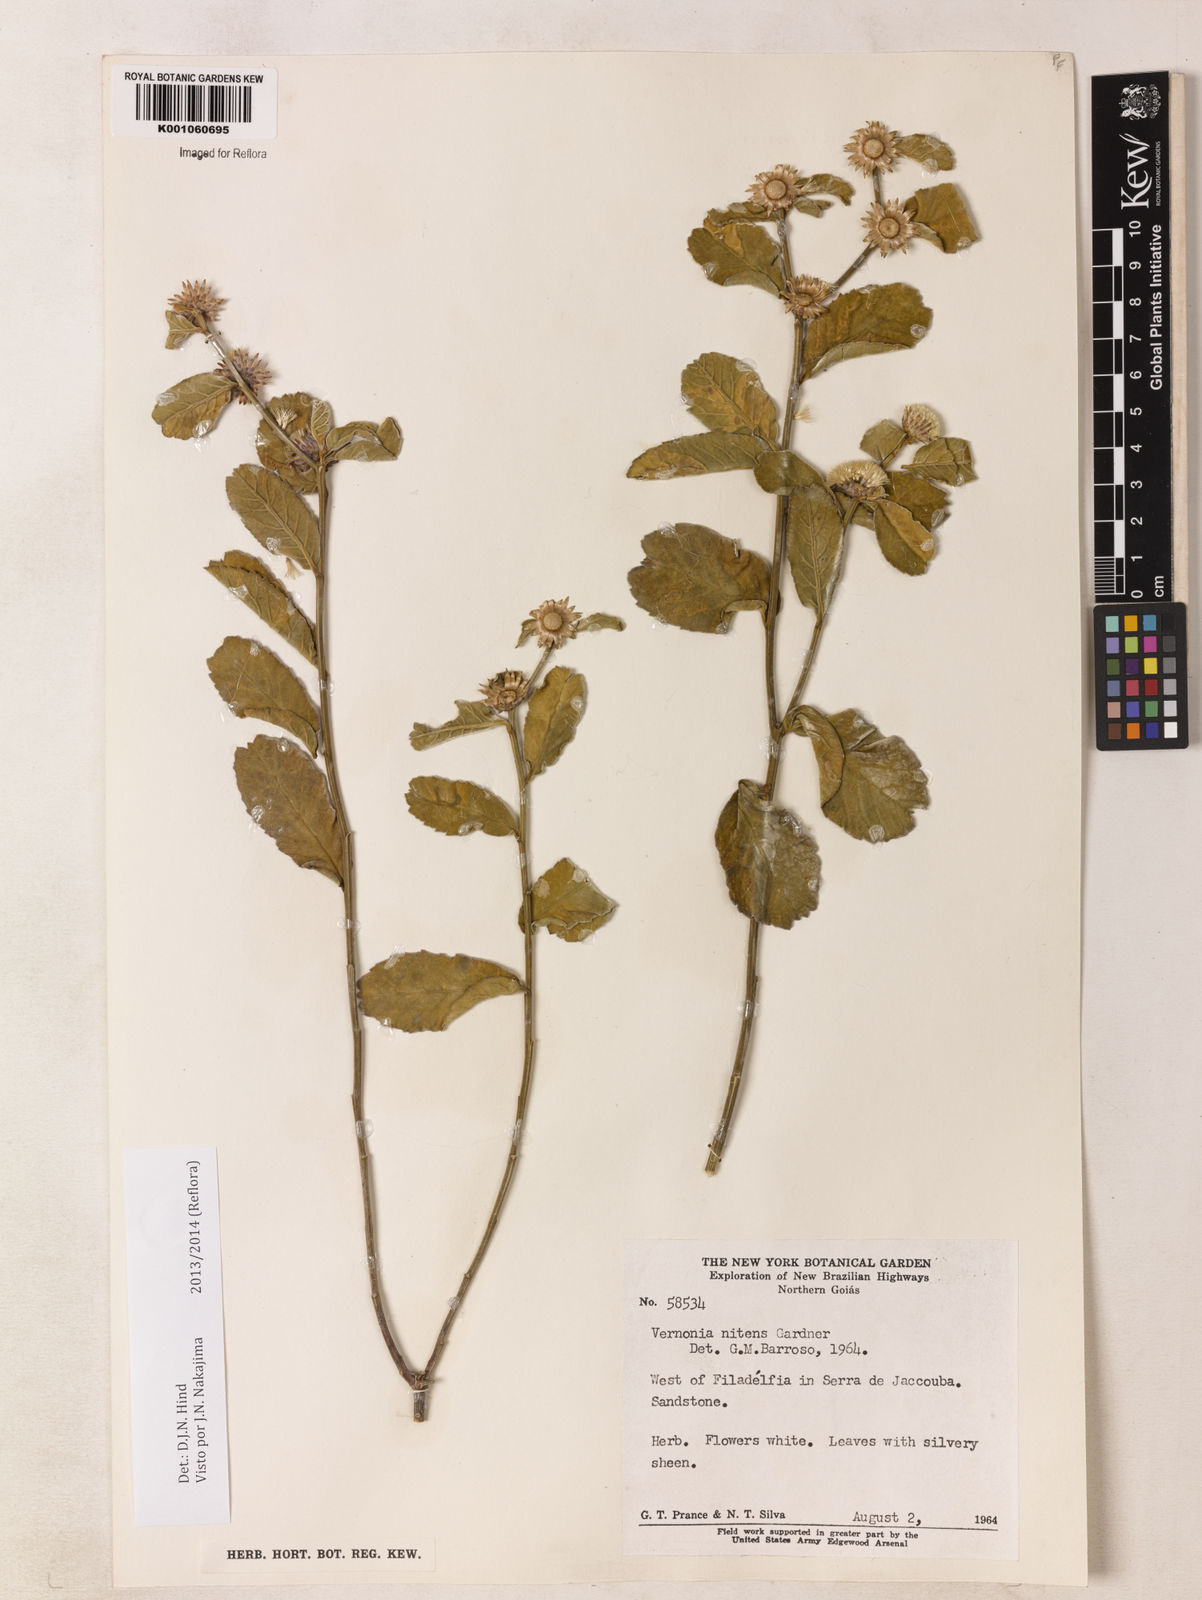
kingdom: Plantae
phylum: Tracheophyta
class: Magnoliopsida
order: Asterales
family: Asteraceae
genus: Lepidaploa
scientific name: Lepidaploa nitens
